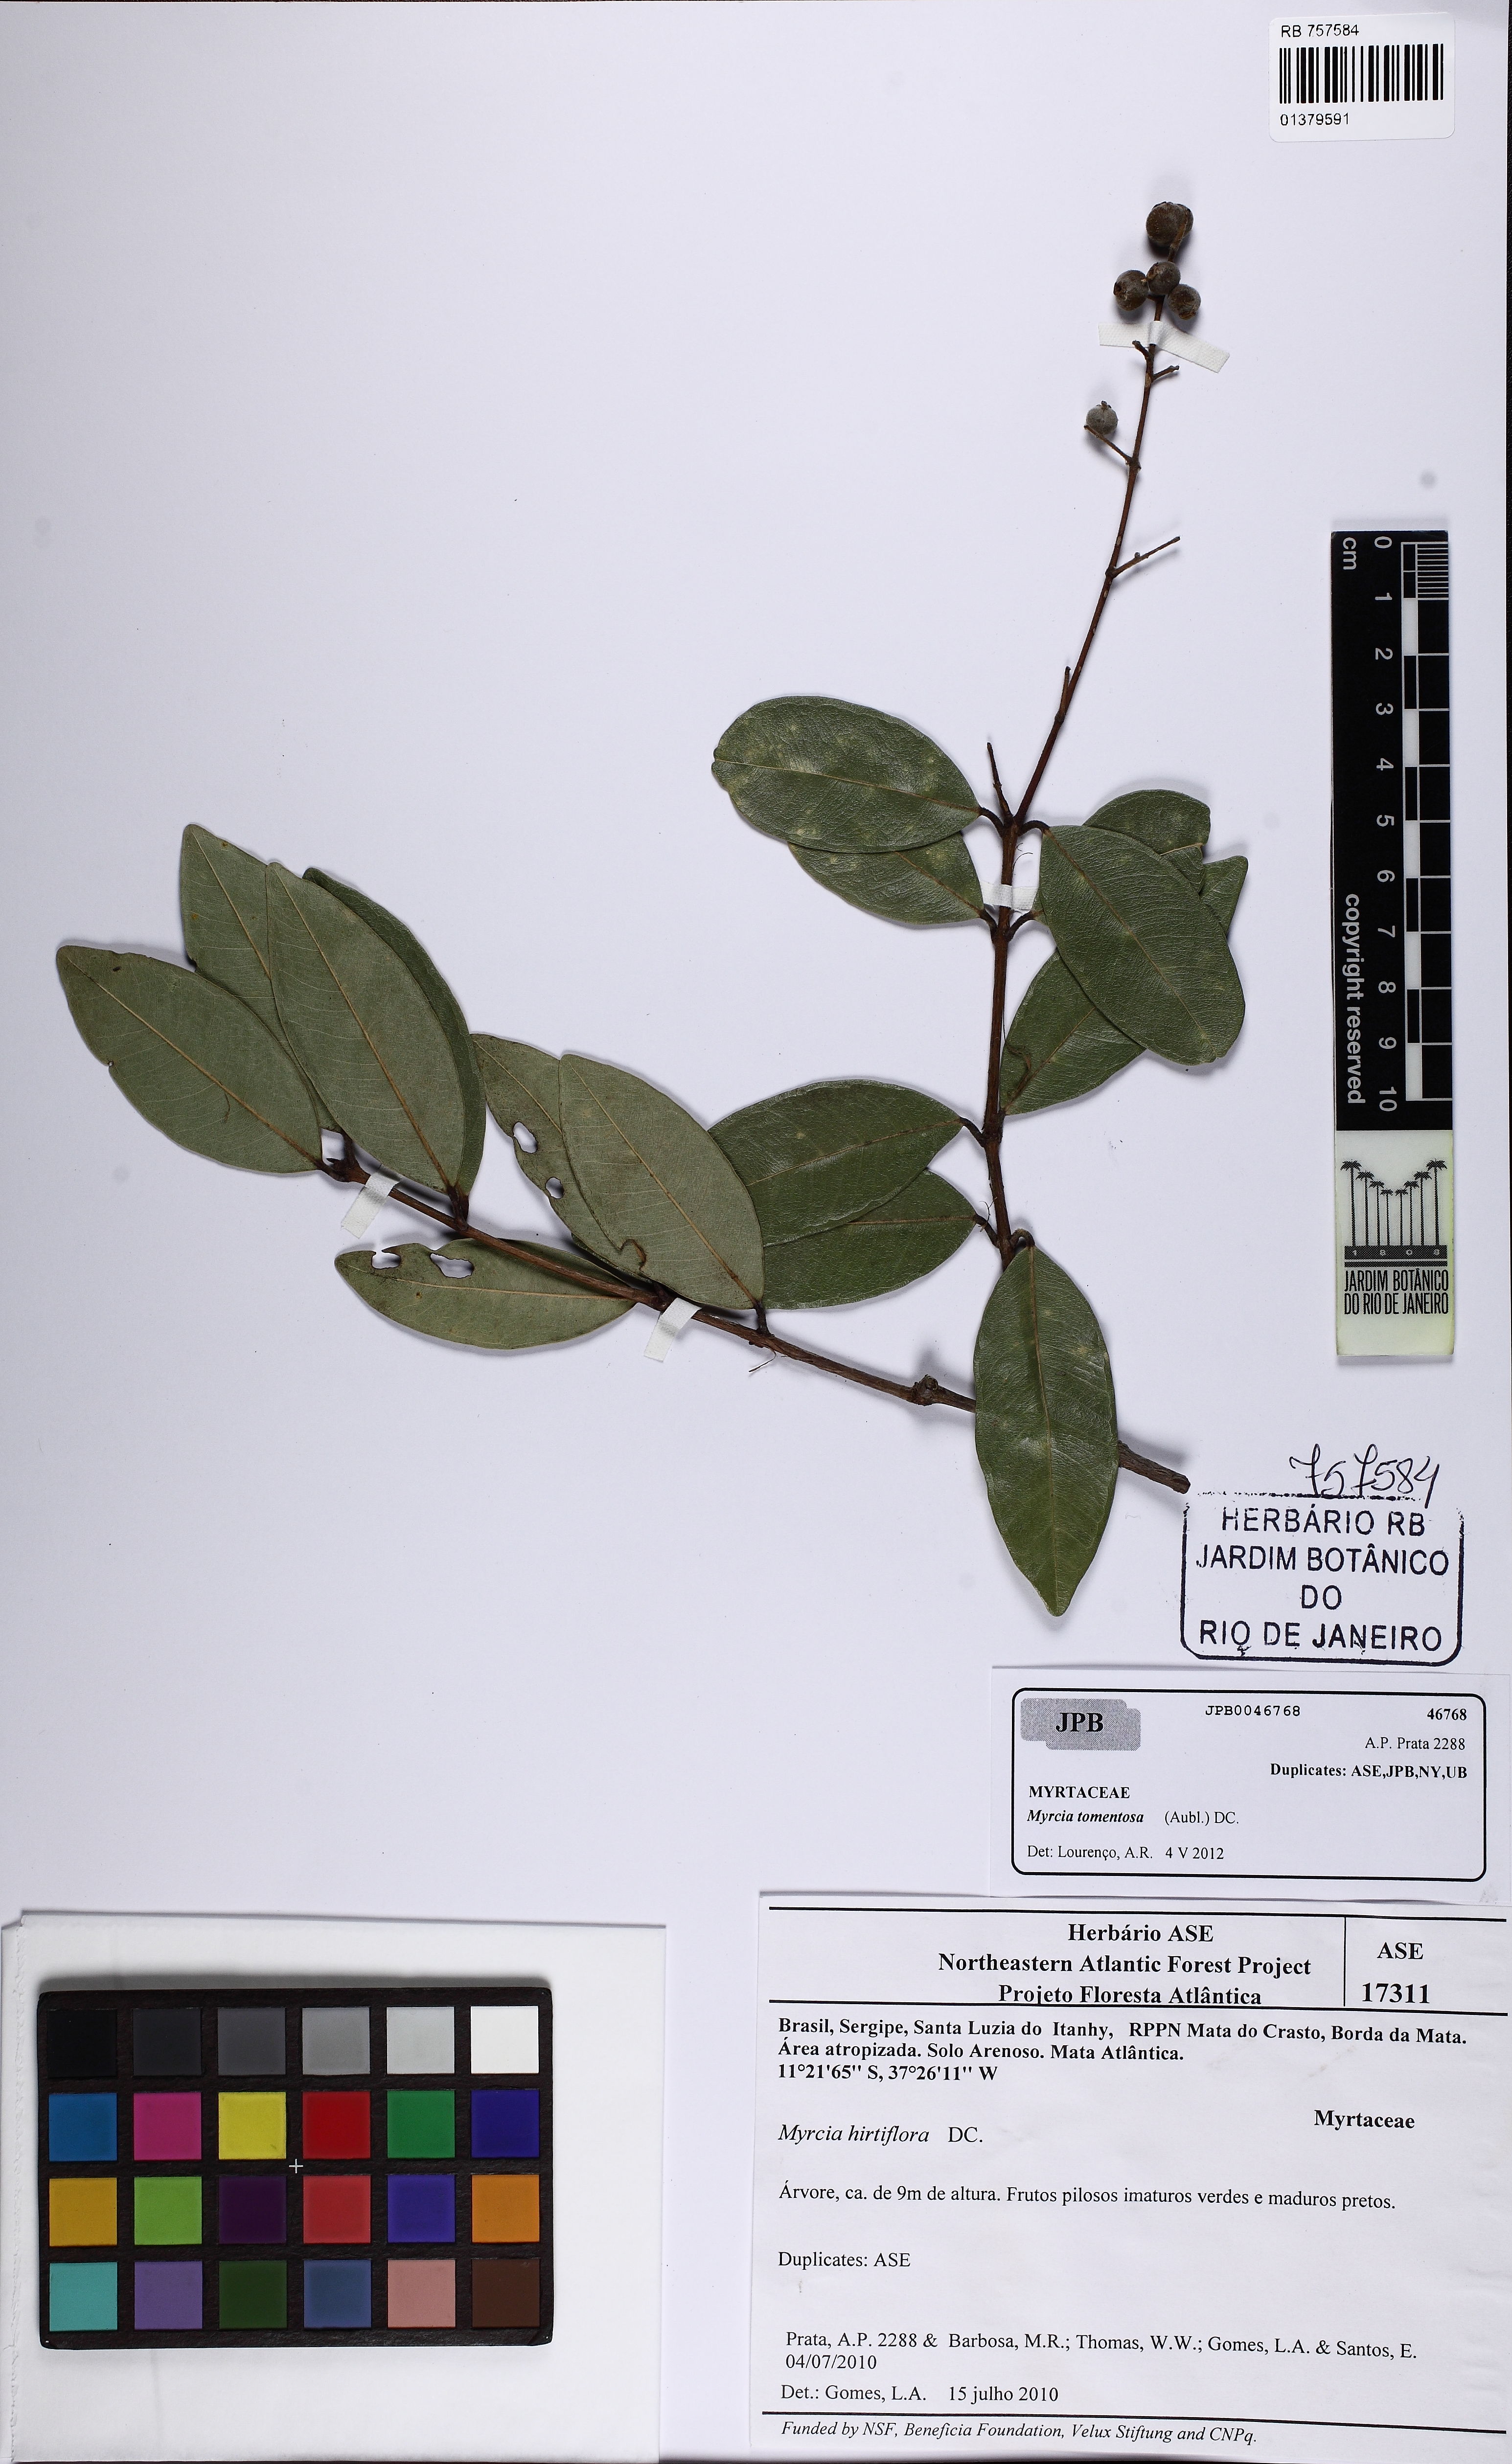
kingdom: Plantae
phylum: Tracheophyta
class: Magnoliopsida
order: Myrtales
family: Myrtaceae
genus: Myrcia
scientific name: Myrcia tomentosa
